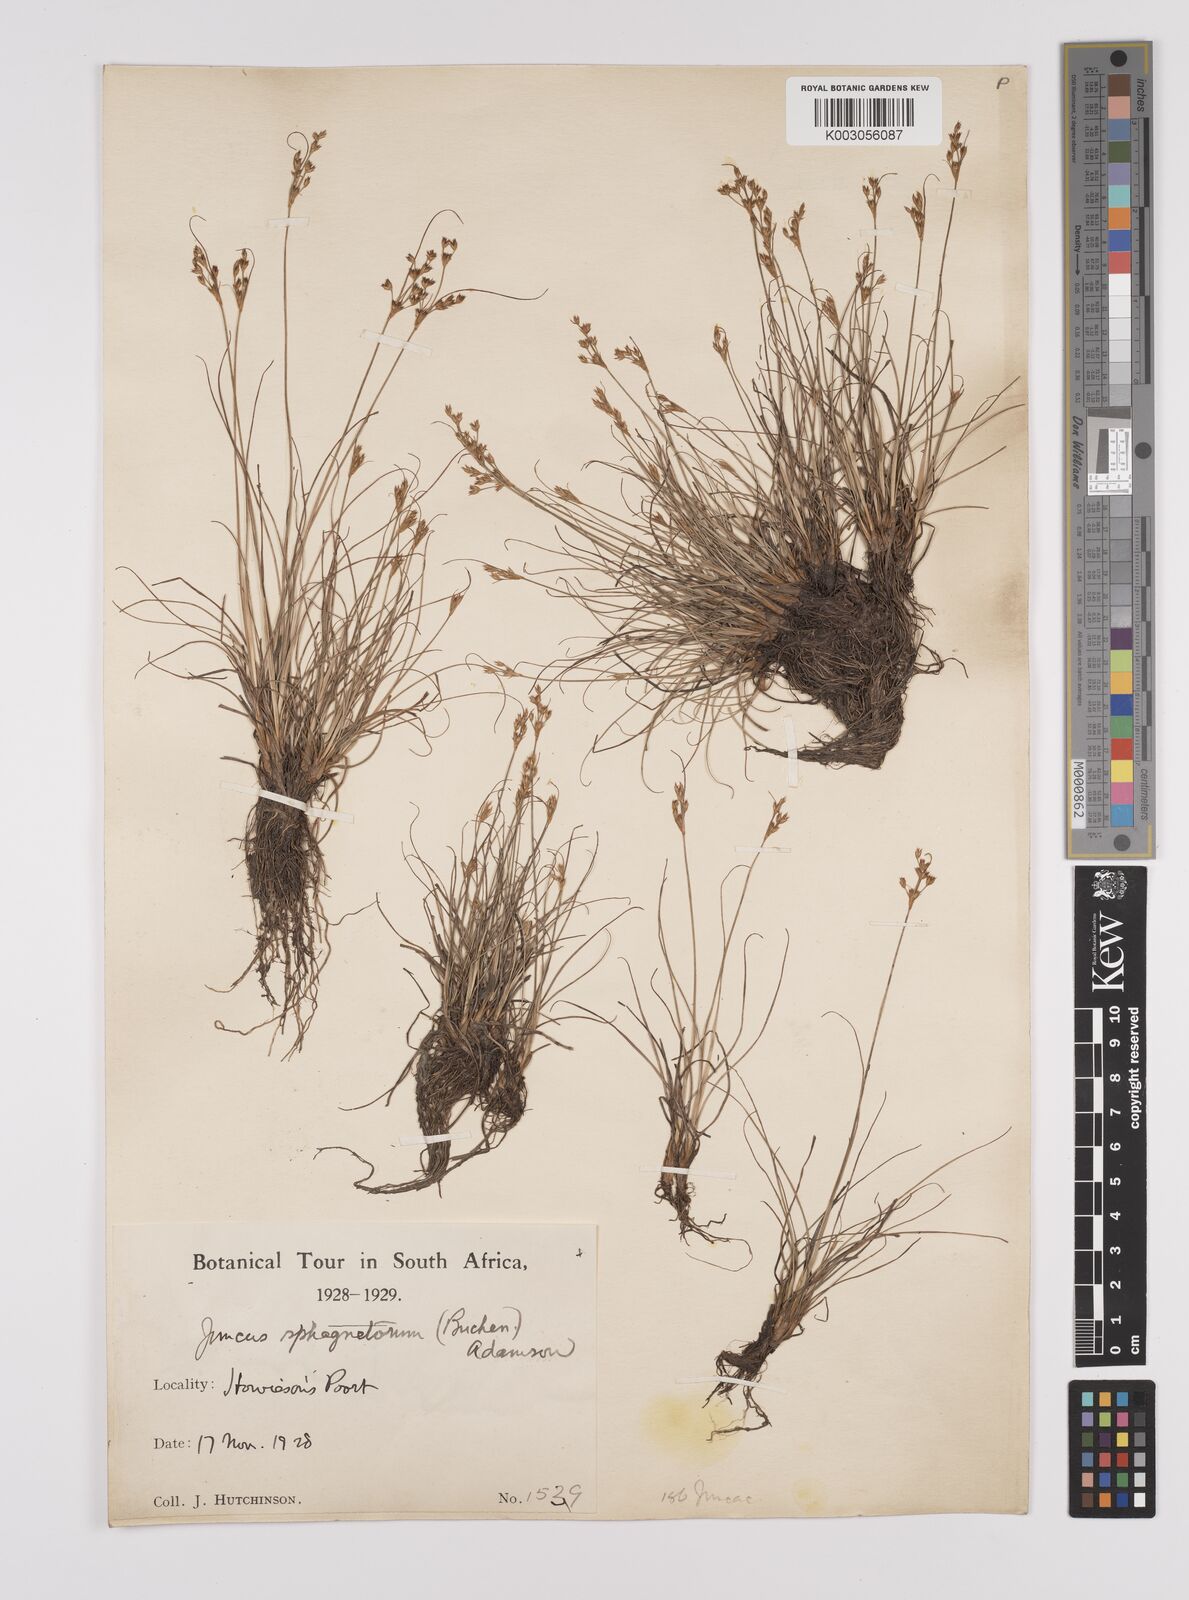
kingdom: Plantae
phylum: Tracheophyta
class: Liliopsida
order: Poales
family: Juncaceae
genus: Juncus
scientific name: Juncus capensis
